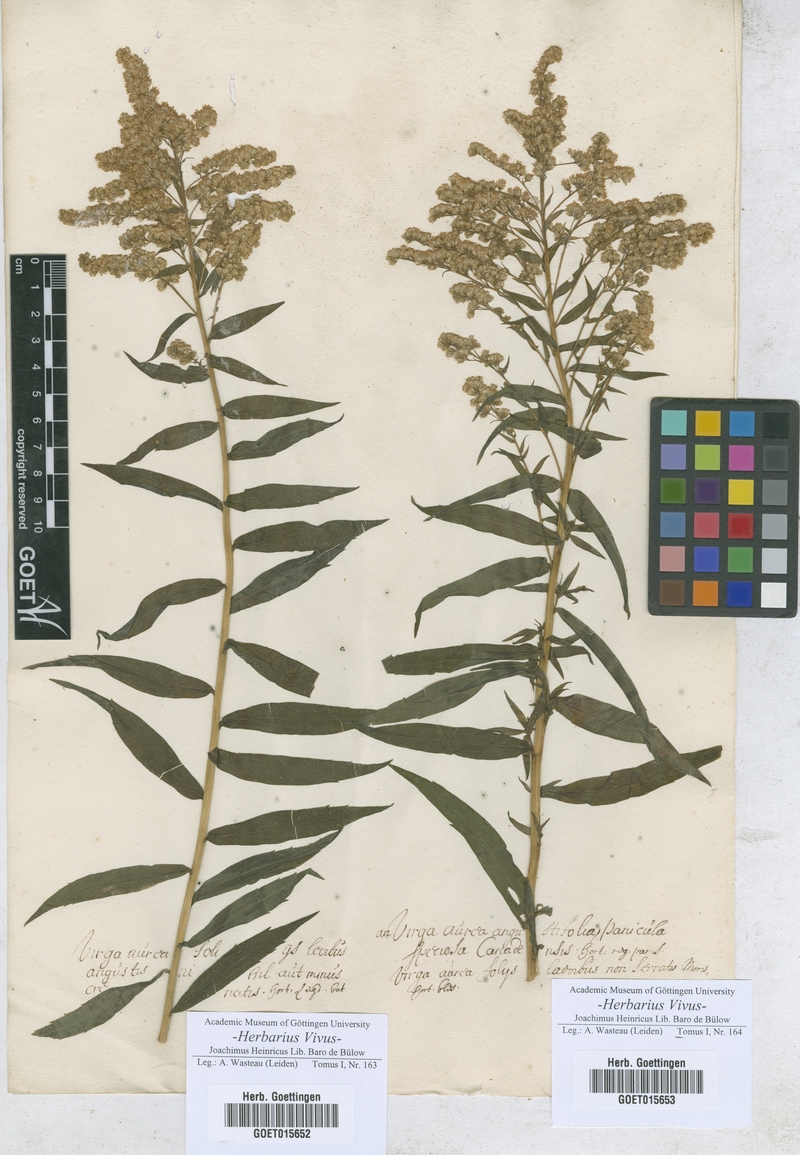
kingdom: Animalia
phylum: Arthropoda
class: Insecta
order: Lepidoptera
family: Hesperiidae
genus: Virga
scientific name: Virga
